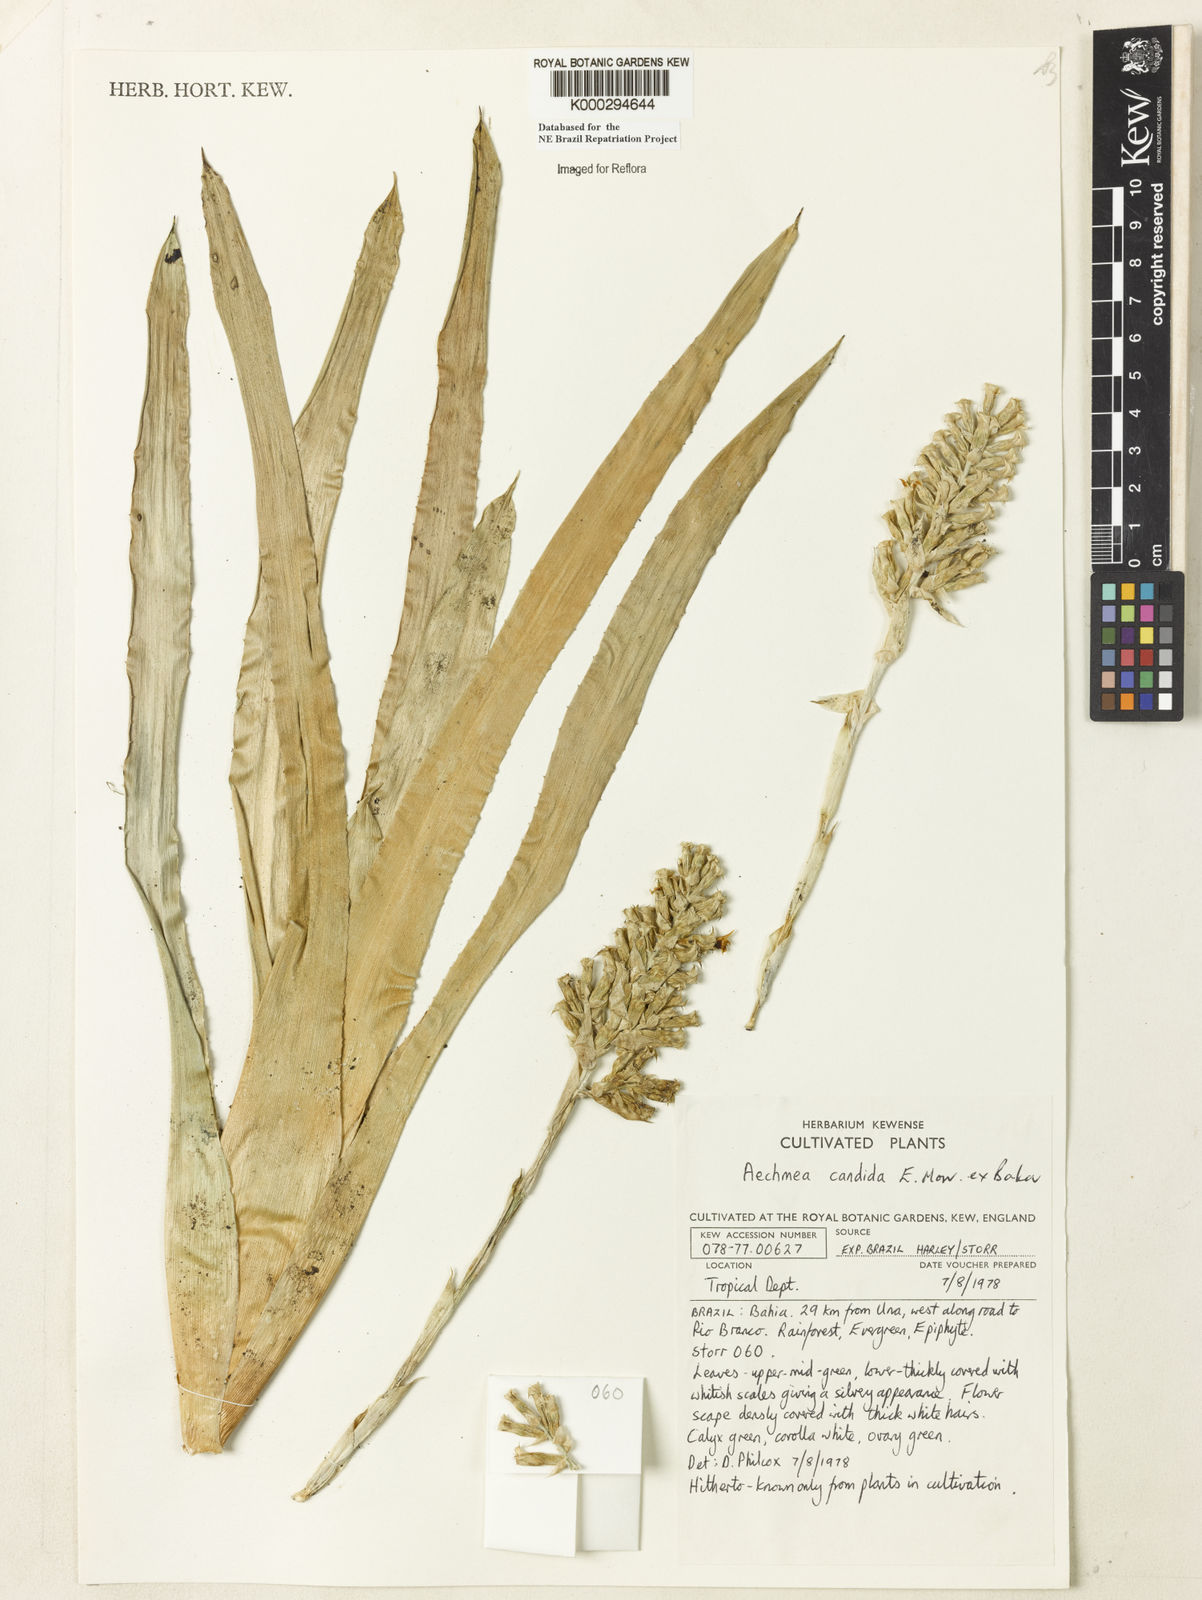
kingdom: Plantae
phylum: Tracheophyta
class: Liliopsida
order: Poales
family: Bromeliaceae
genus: Aechmea
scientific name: Aechmea candida
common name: White bromeliad
